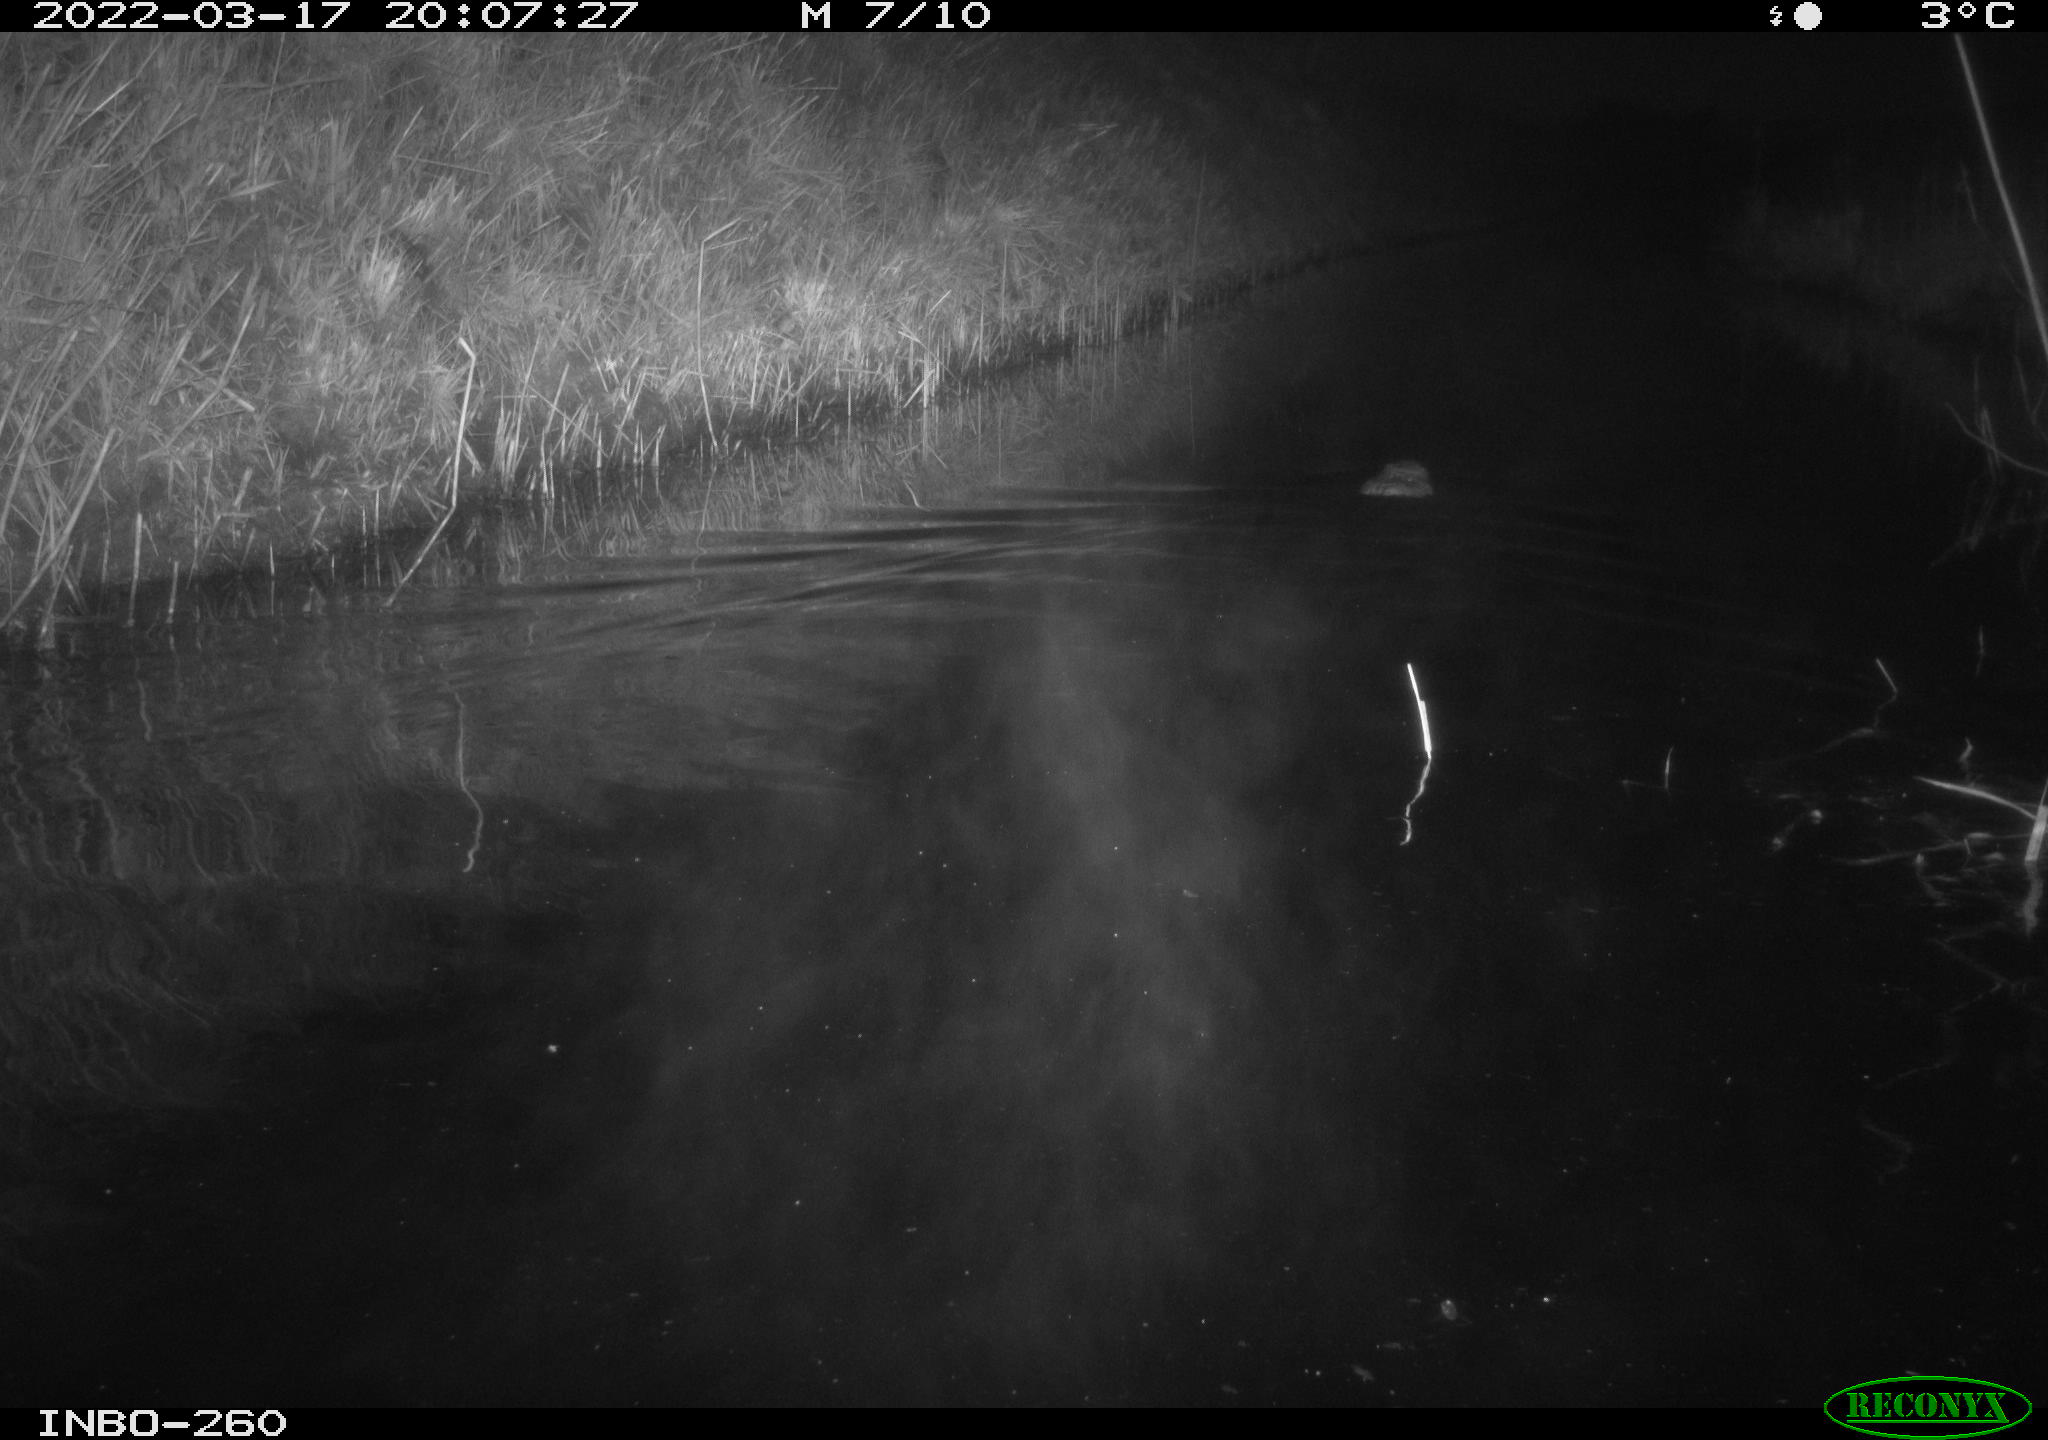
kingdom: Animalia
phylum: Chordata
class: Mammalia
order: Rodentia
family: Cricetidae
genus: Ondatra
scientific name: Ondatra zibethicus
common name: Muskrat
